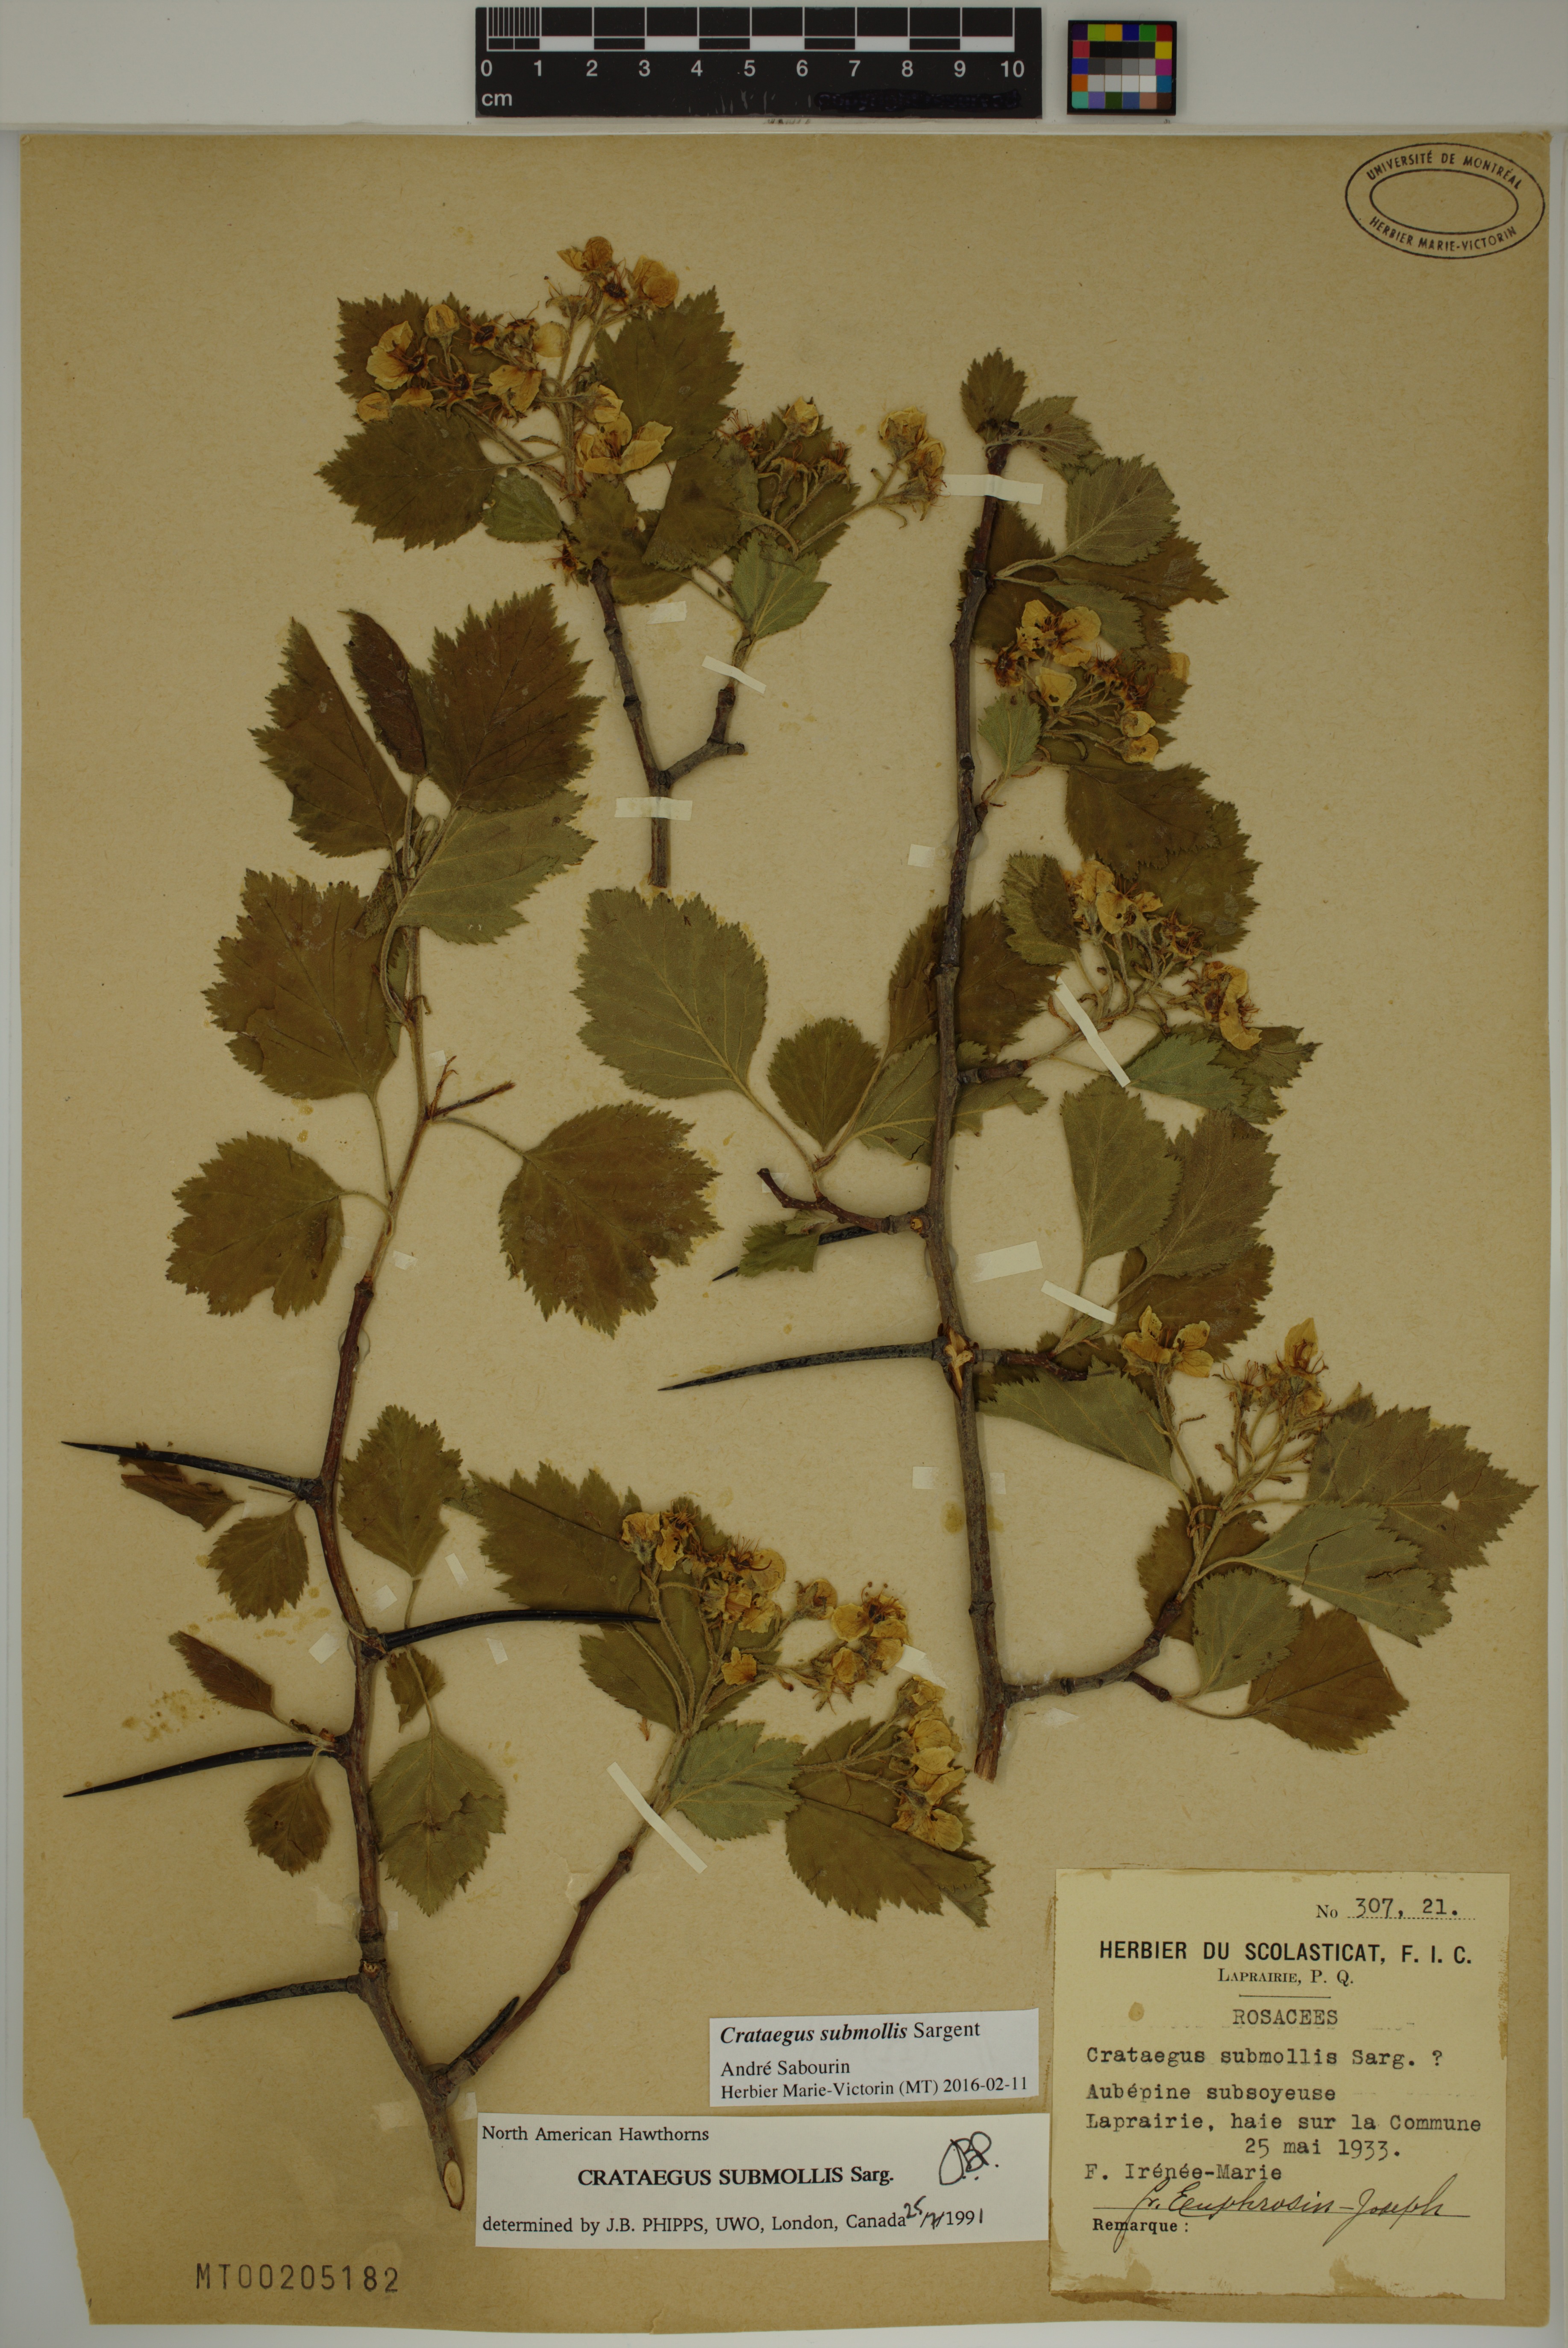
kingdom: Plantae
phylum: Tracheophyta
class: Magnoliopsida
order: Rosales
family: Rosaceae
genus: Crataegus
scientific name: Crataegus submollis
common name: Hairy cockspurthorn
